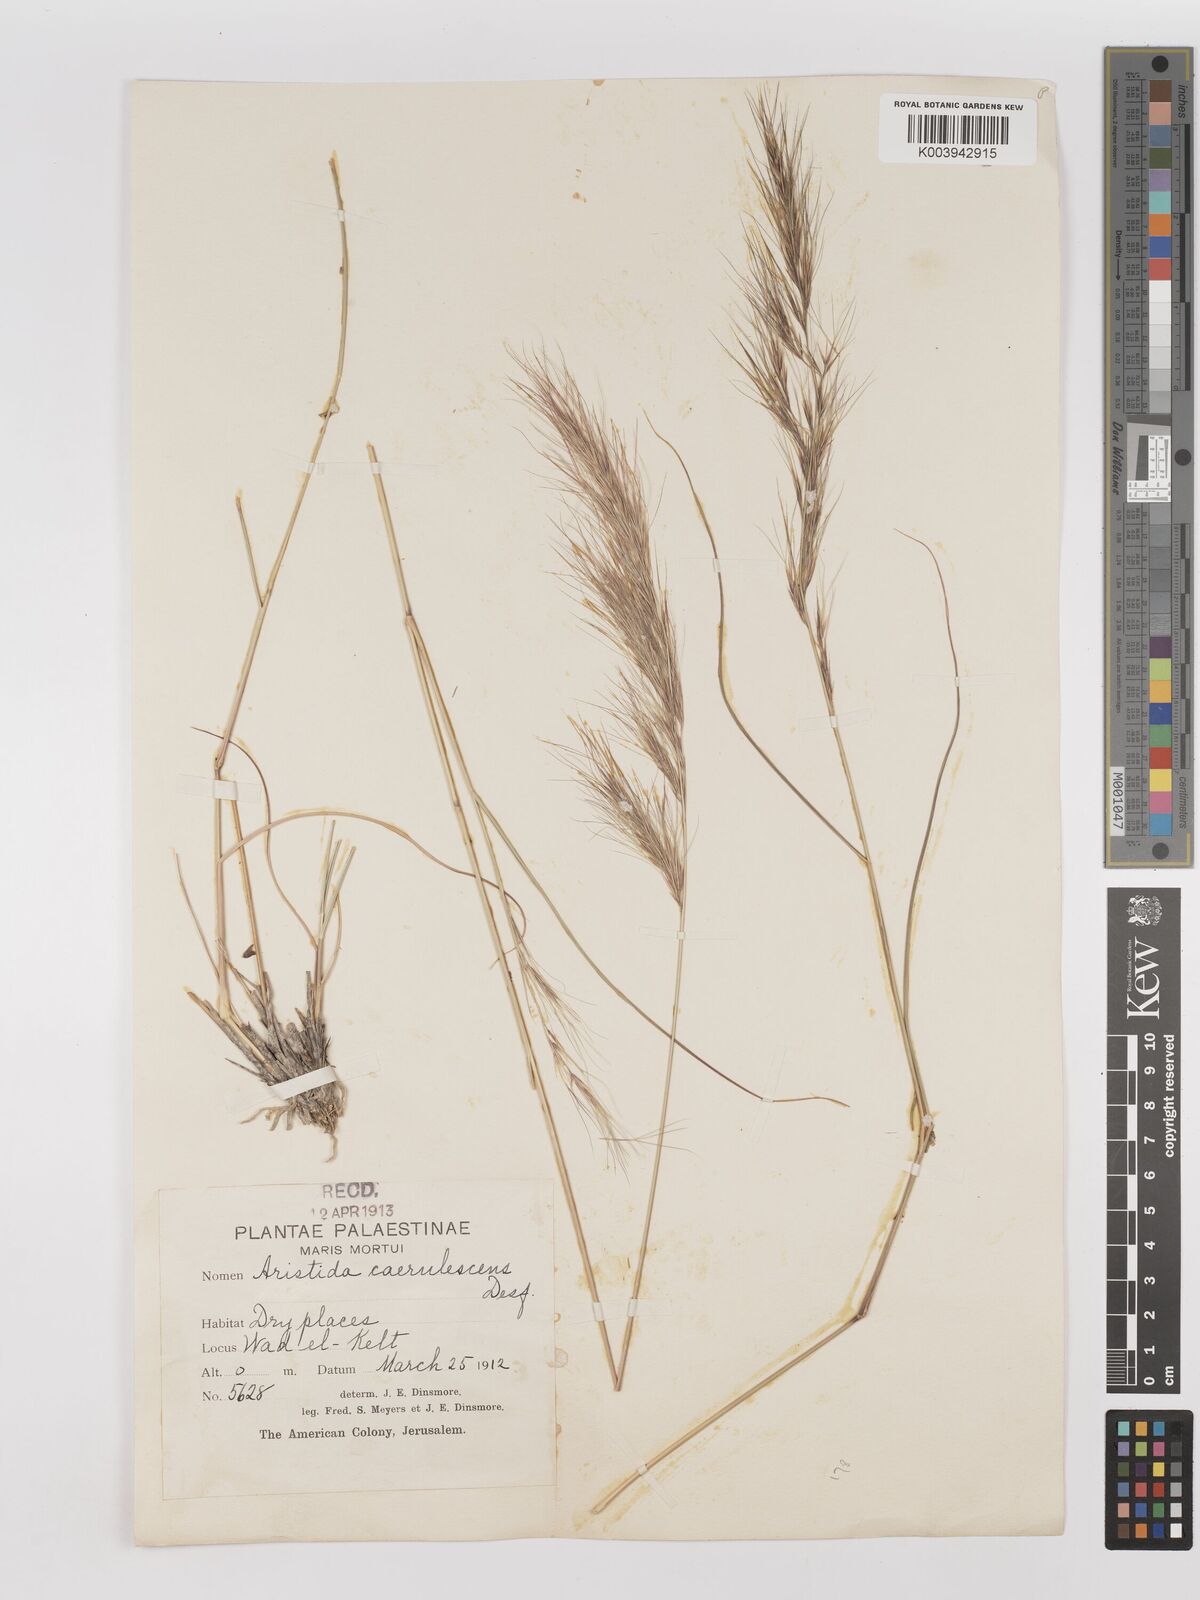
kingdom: Plantae
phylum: Tracheophyta
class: Liliopsida
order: Poales
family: Poaceae
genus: Aristida
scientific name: Aristida adscensionis
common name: Sixweeks threeawn
